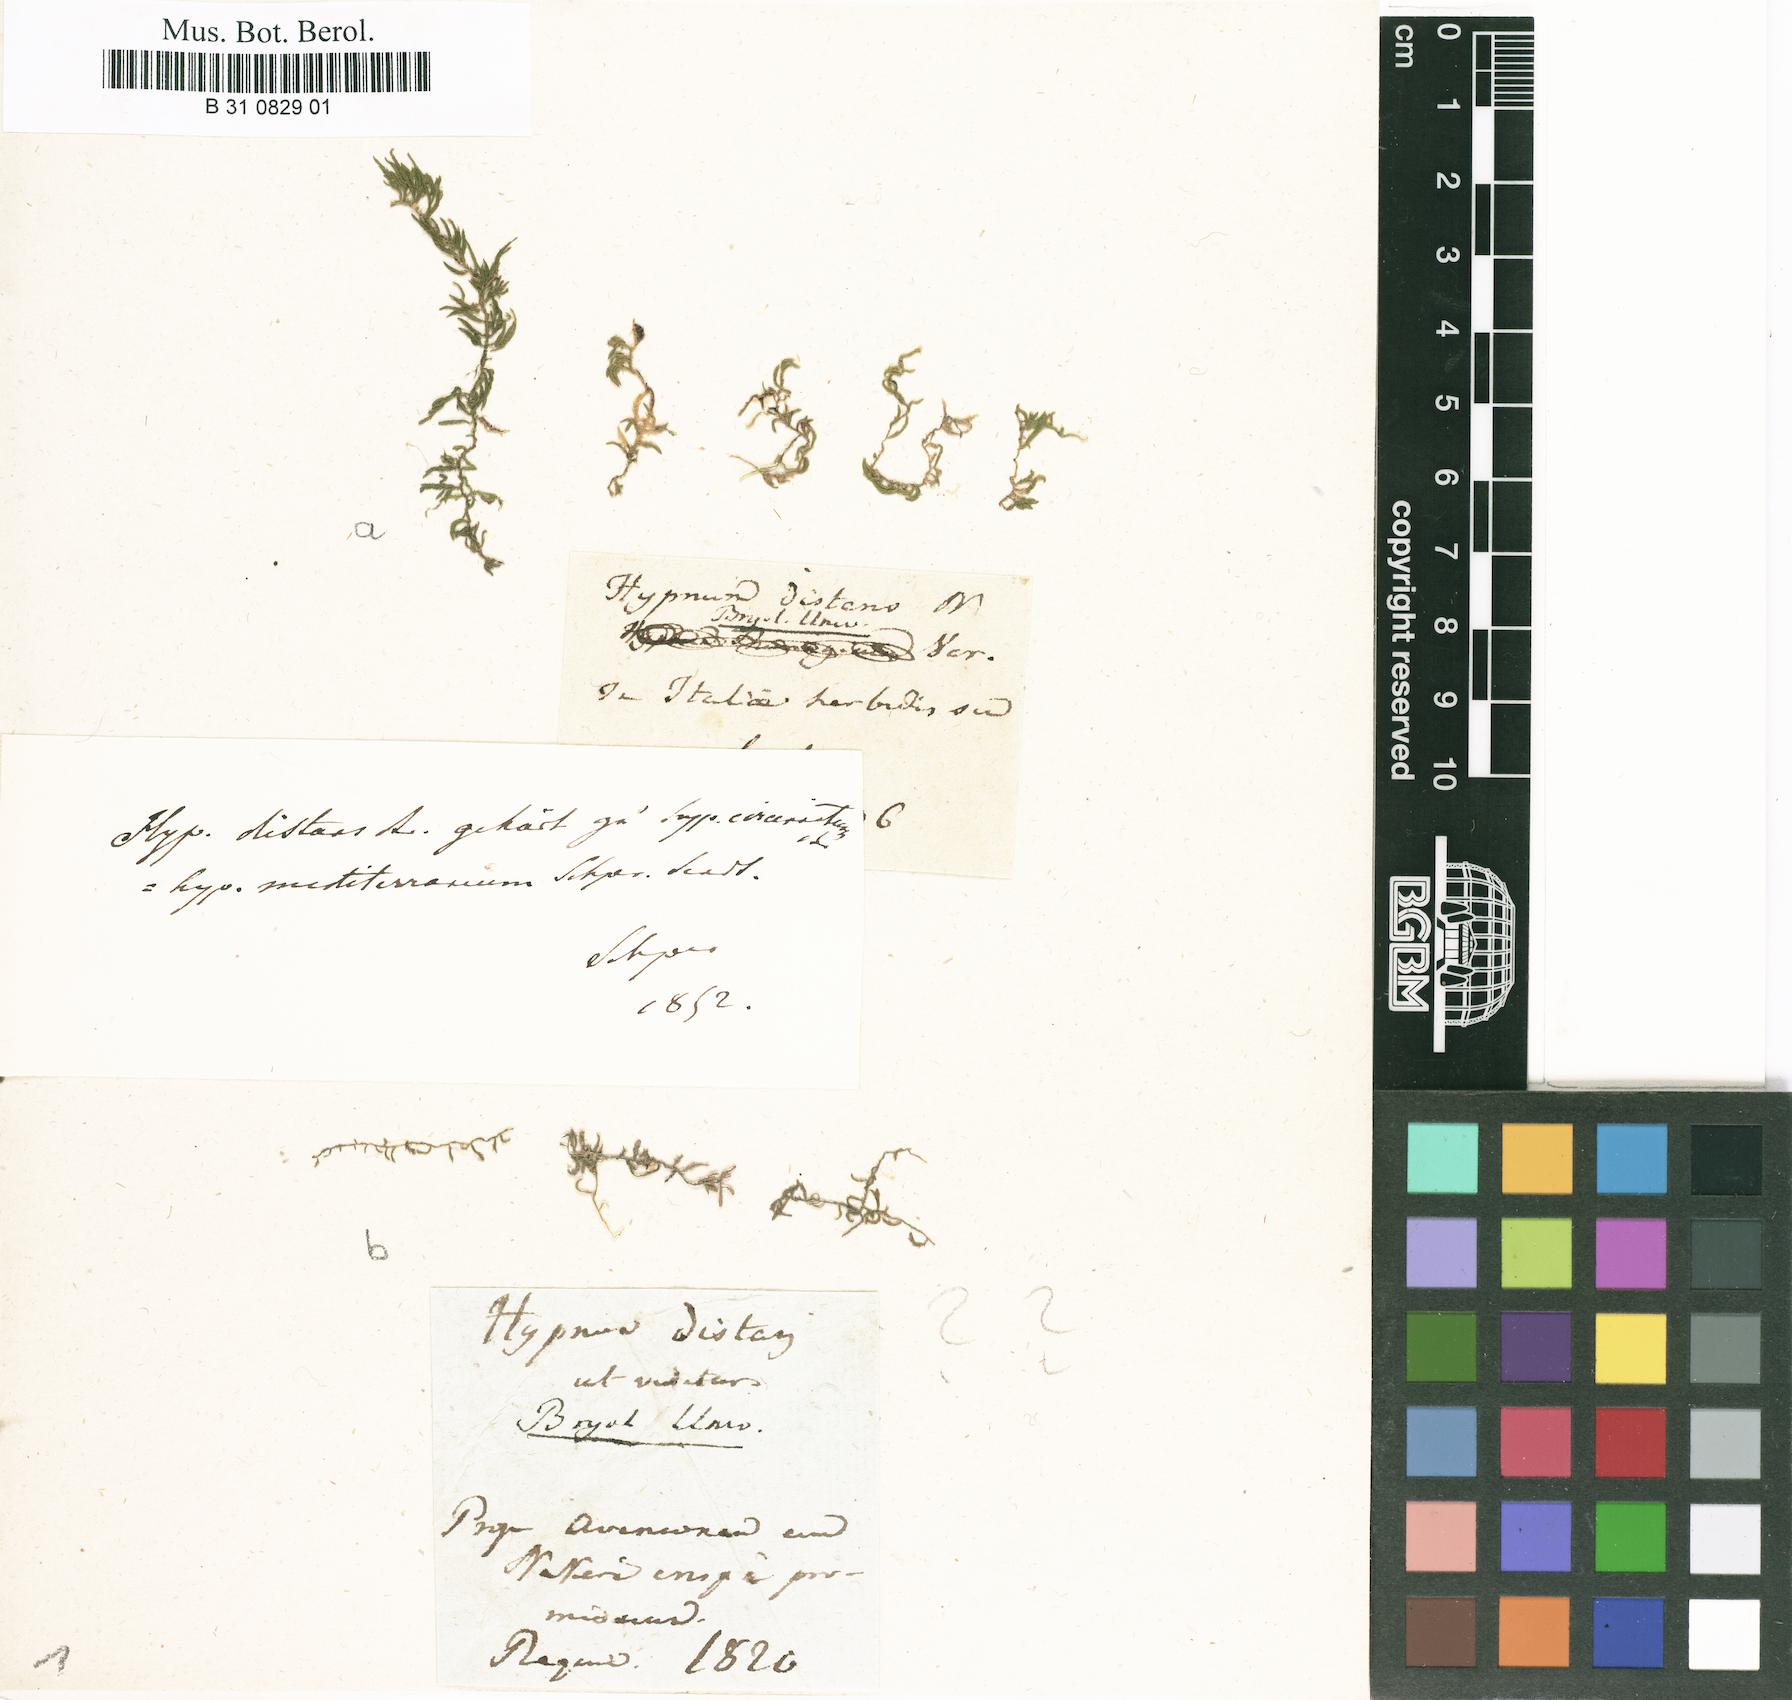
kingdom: Plantae
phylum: Bryophyta
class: Bryopsida
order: Hypnales
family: Brachytheciaceae
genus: Scorpiurium
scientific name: Scorpiurium circinatum
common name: Curving feather-moss
